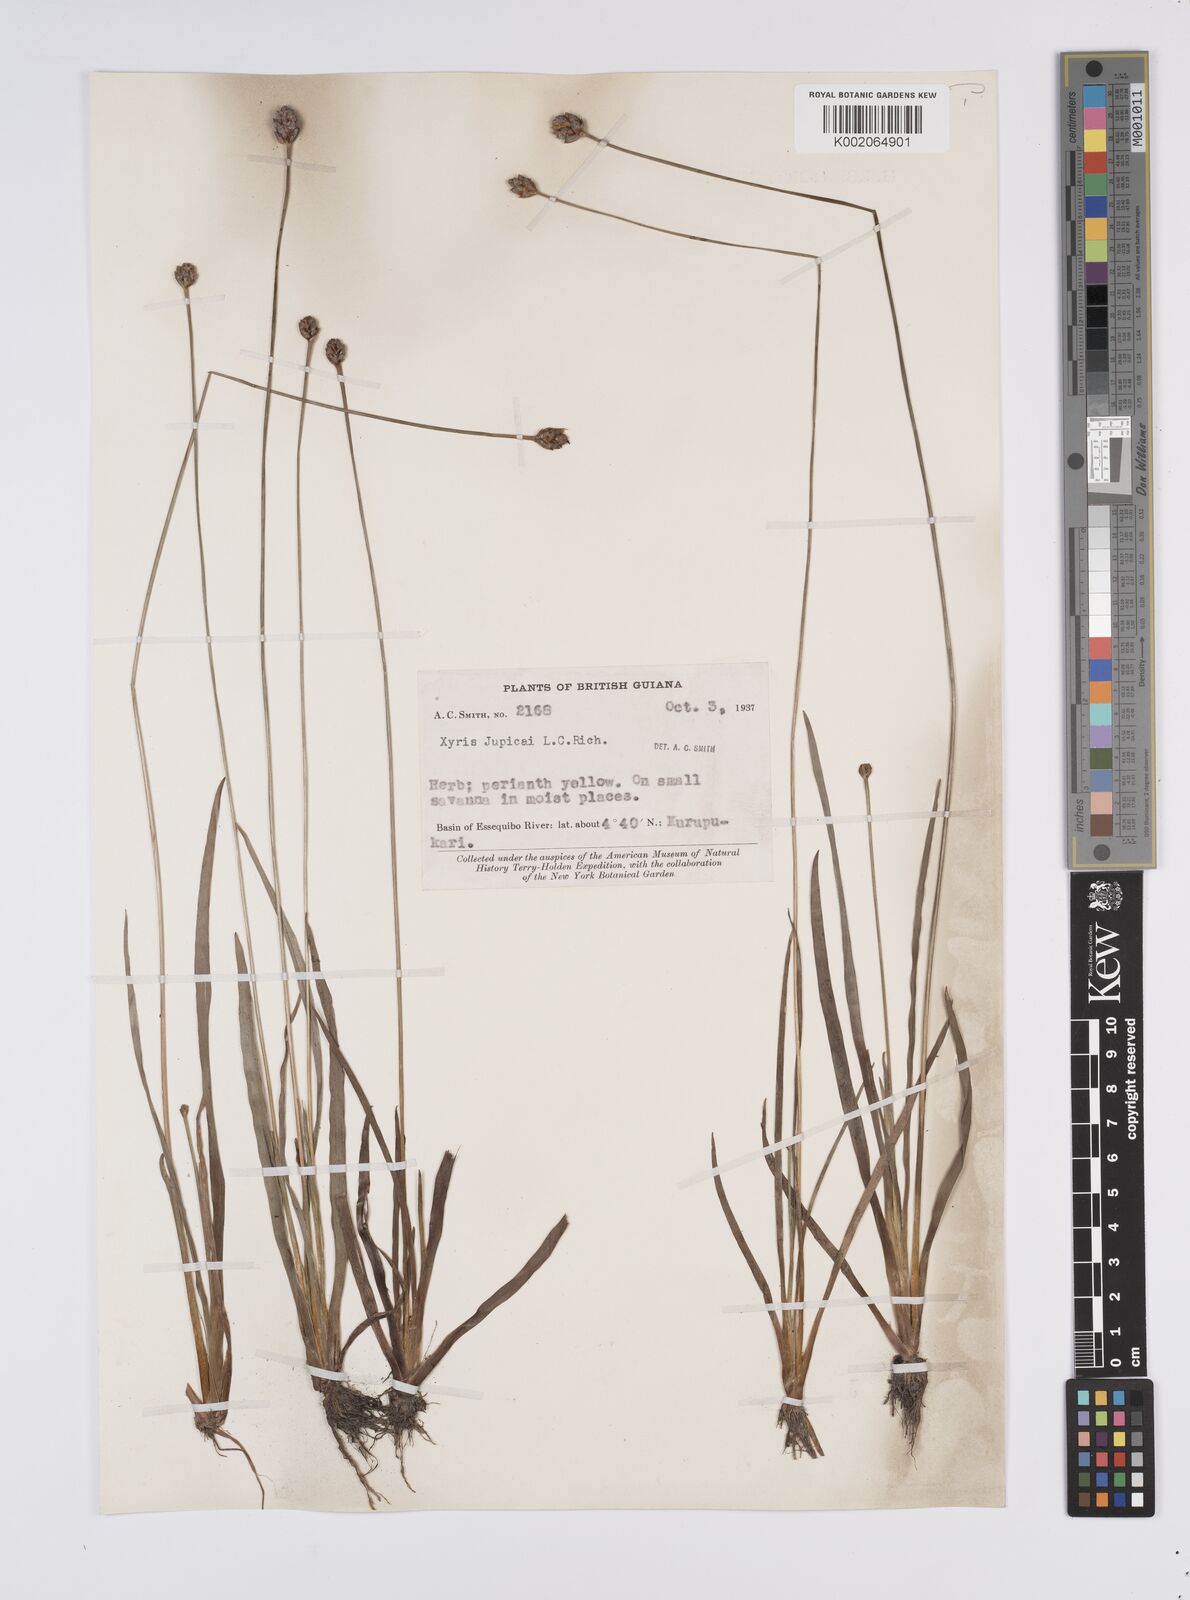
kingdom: Plantae
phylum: Tracheophyta
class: Liliopsida
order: Poales
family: Xyridaceae
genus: Xyris
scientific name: Xyris jupicai
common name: Richard's yelloweyed grass
